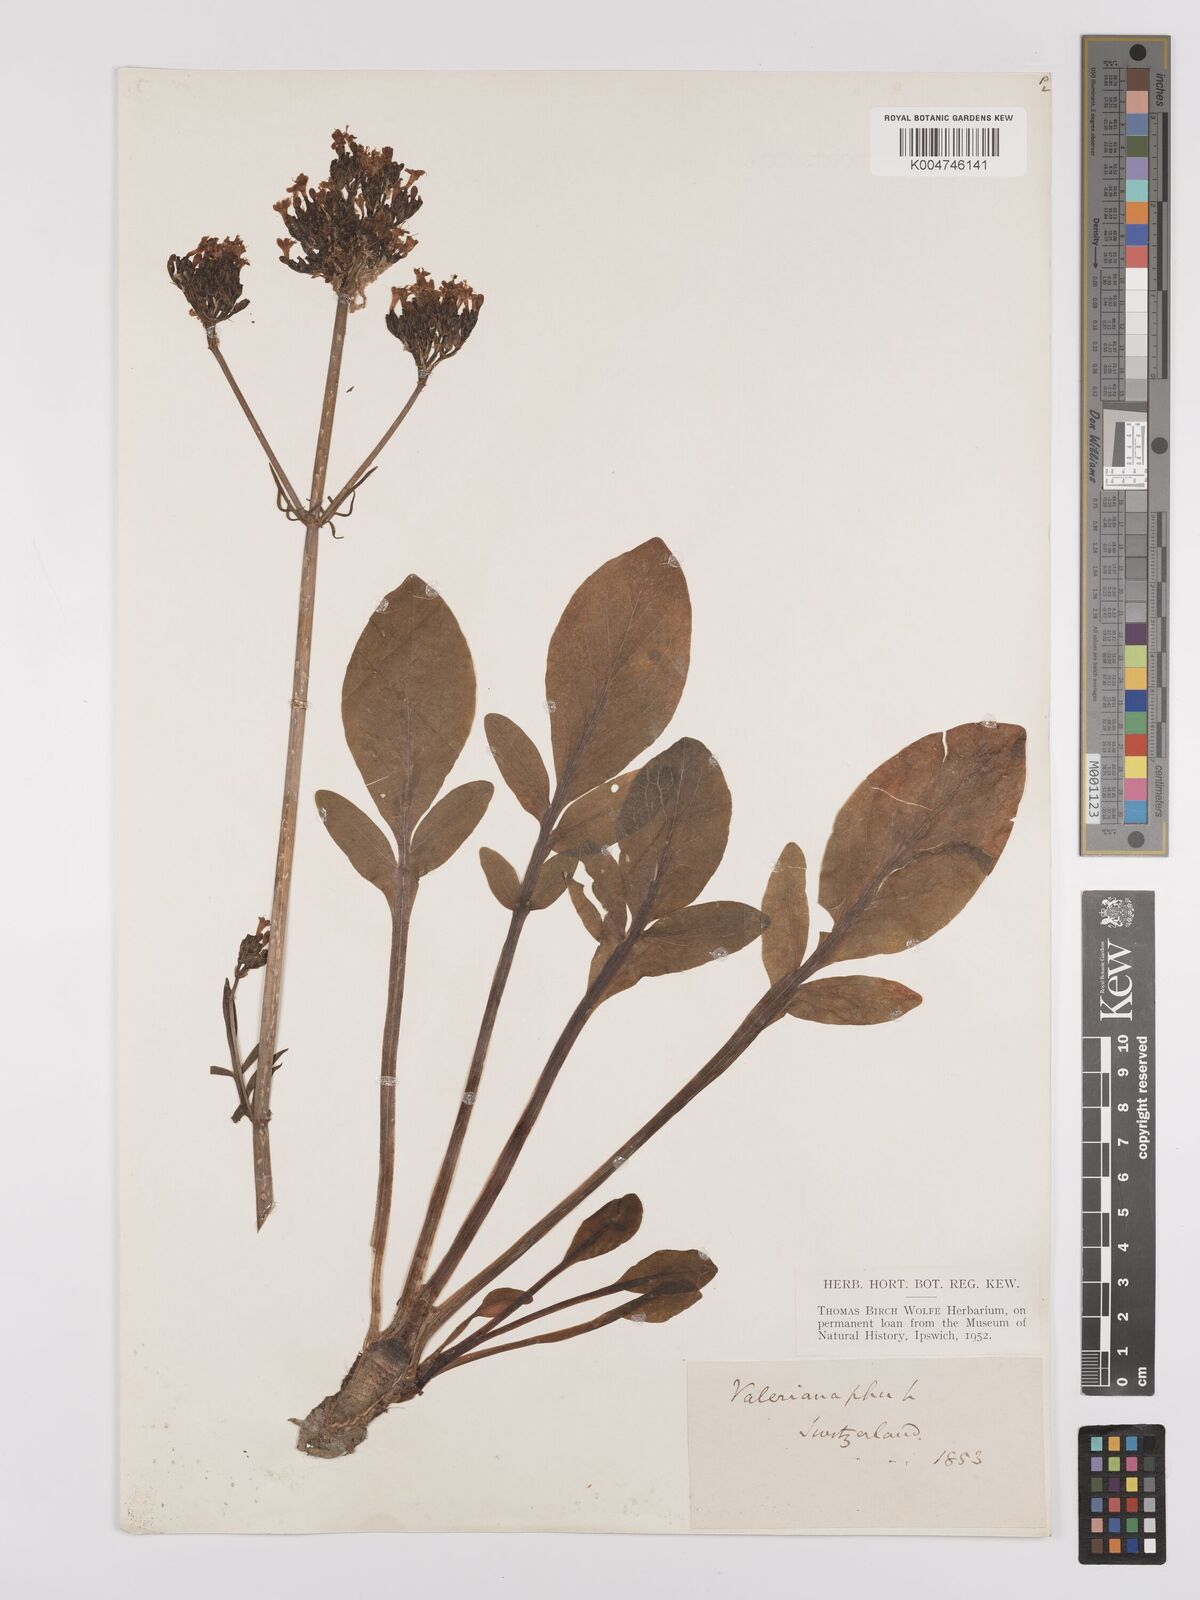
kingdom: Plantae
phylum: Tracheophyta
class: Magnoliopsida
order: Dipsacales
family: Caprifoliaceae
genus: Valeriana
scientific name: Valeriana phu
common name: Turkey valerian
